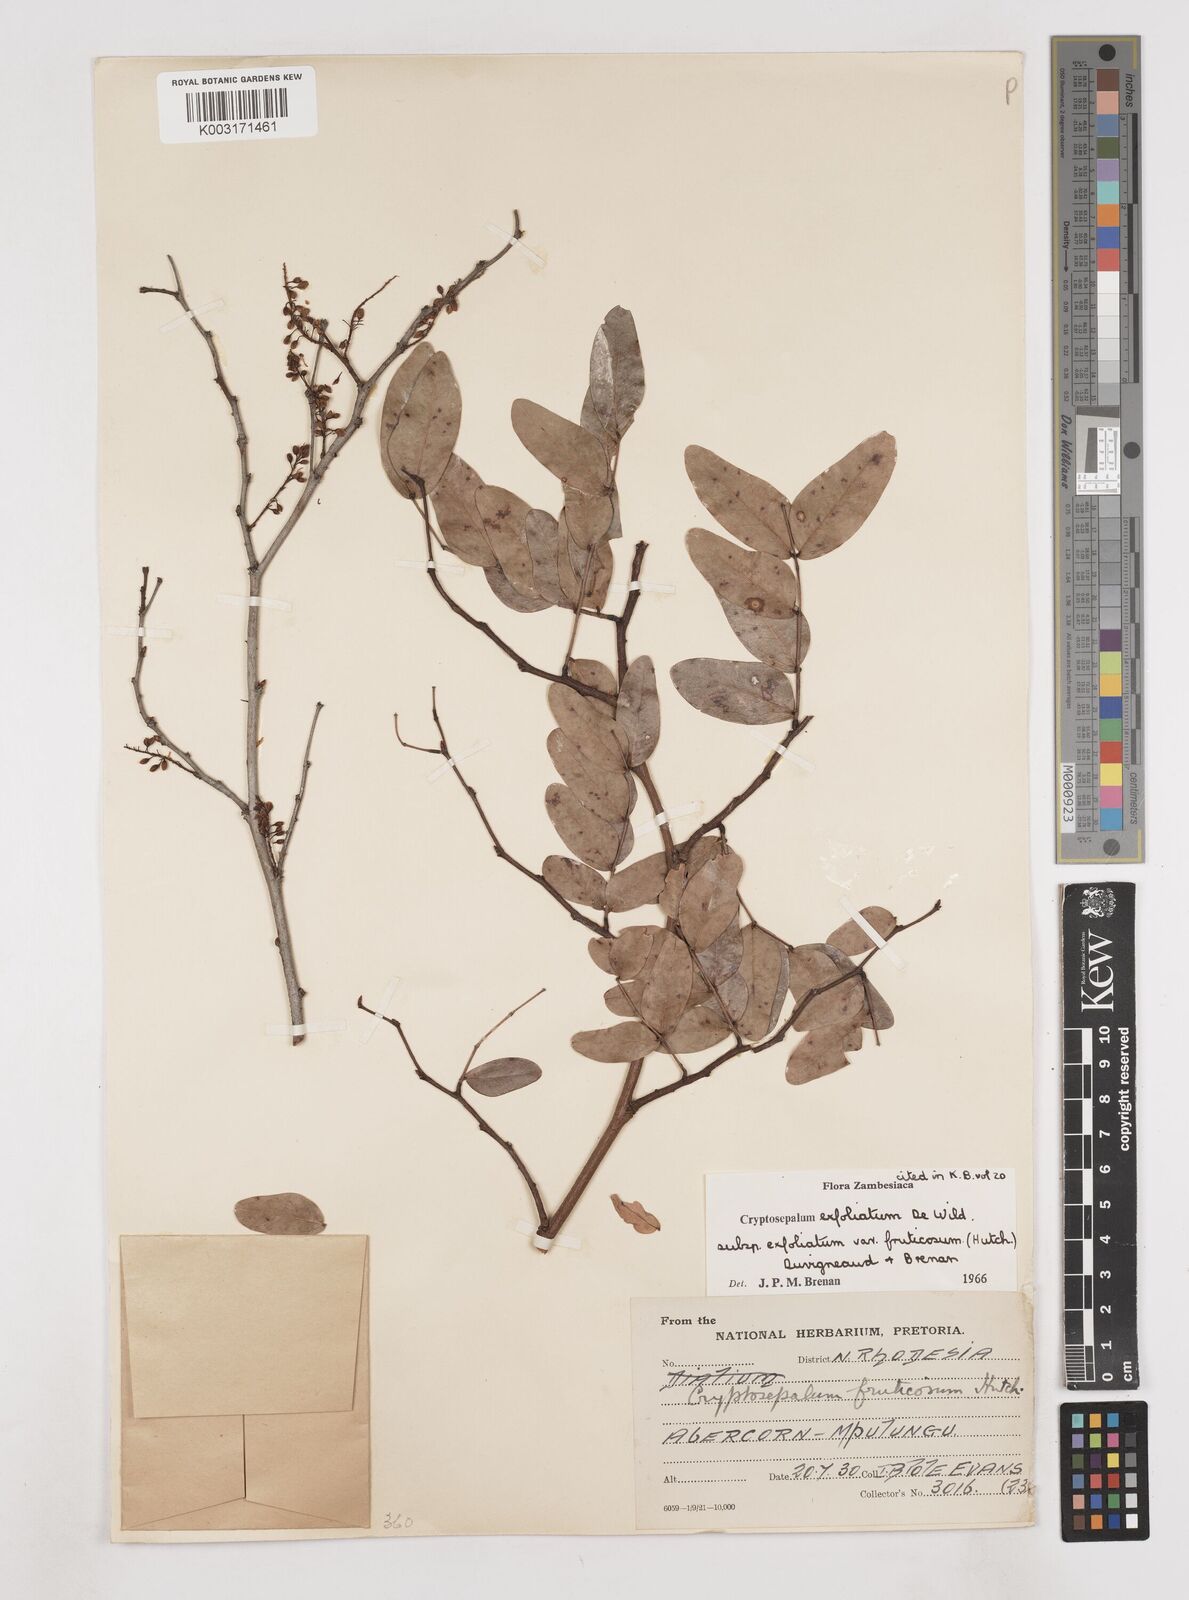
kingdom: Plantae
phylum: Tracheophyta
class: Magnoliopsida
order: Fabales
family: Fabaceae
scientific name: Fabaceae
